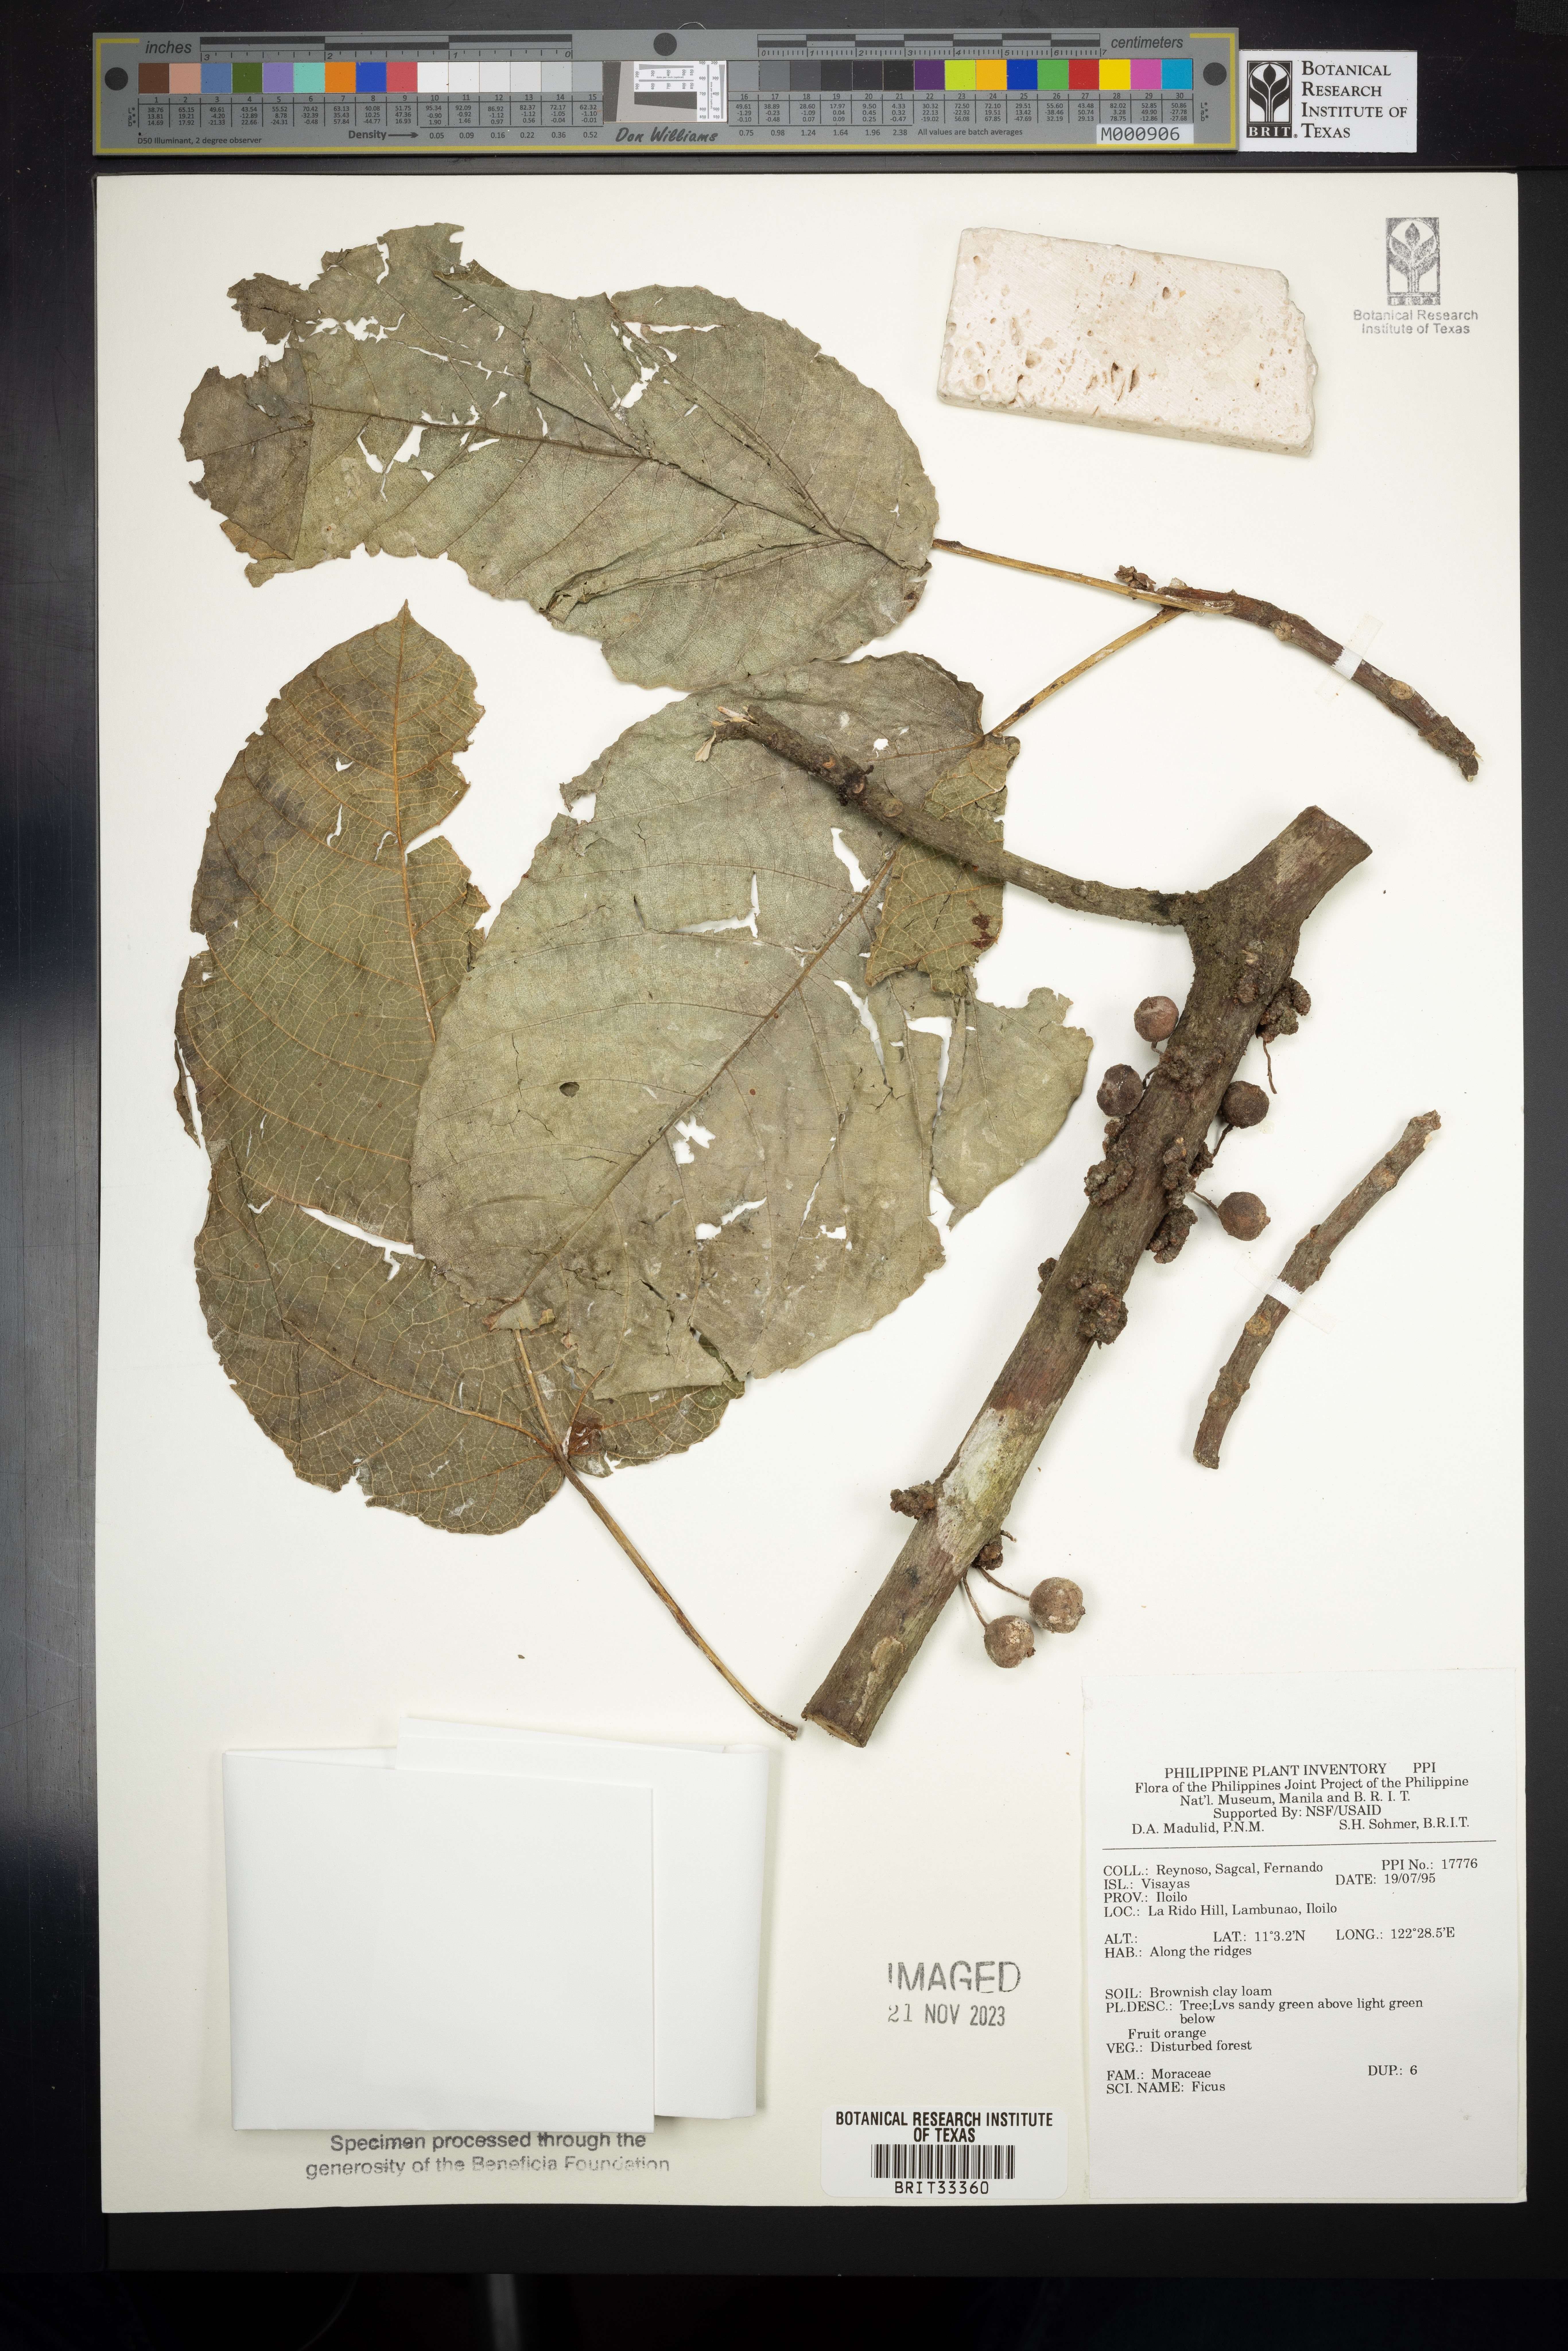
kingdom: Plantae
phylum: Tracheophyta
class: Magnoliopsida
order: Rosales
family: Moraceae
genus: Ficus
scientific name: Ficus
